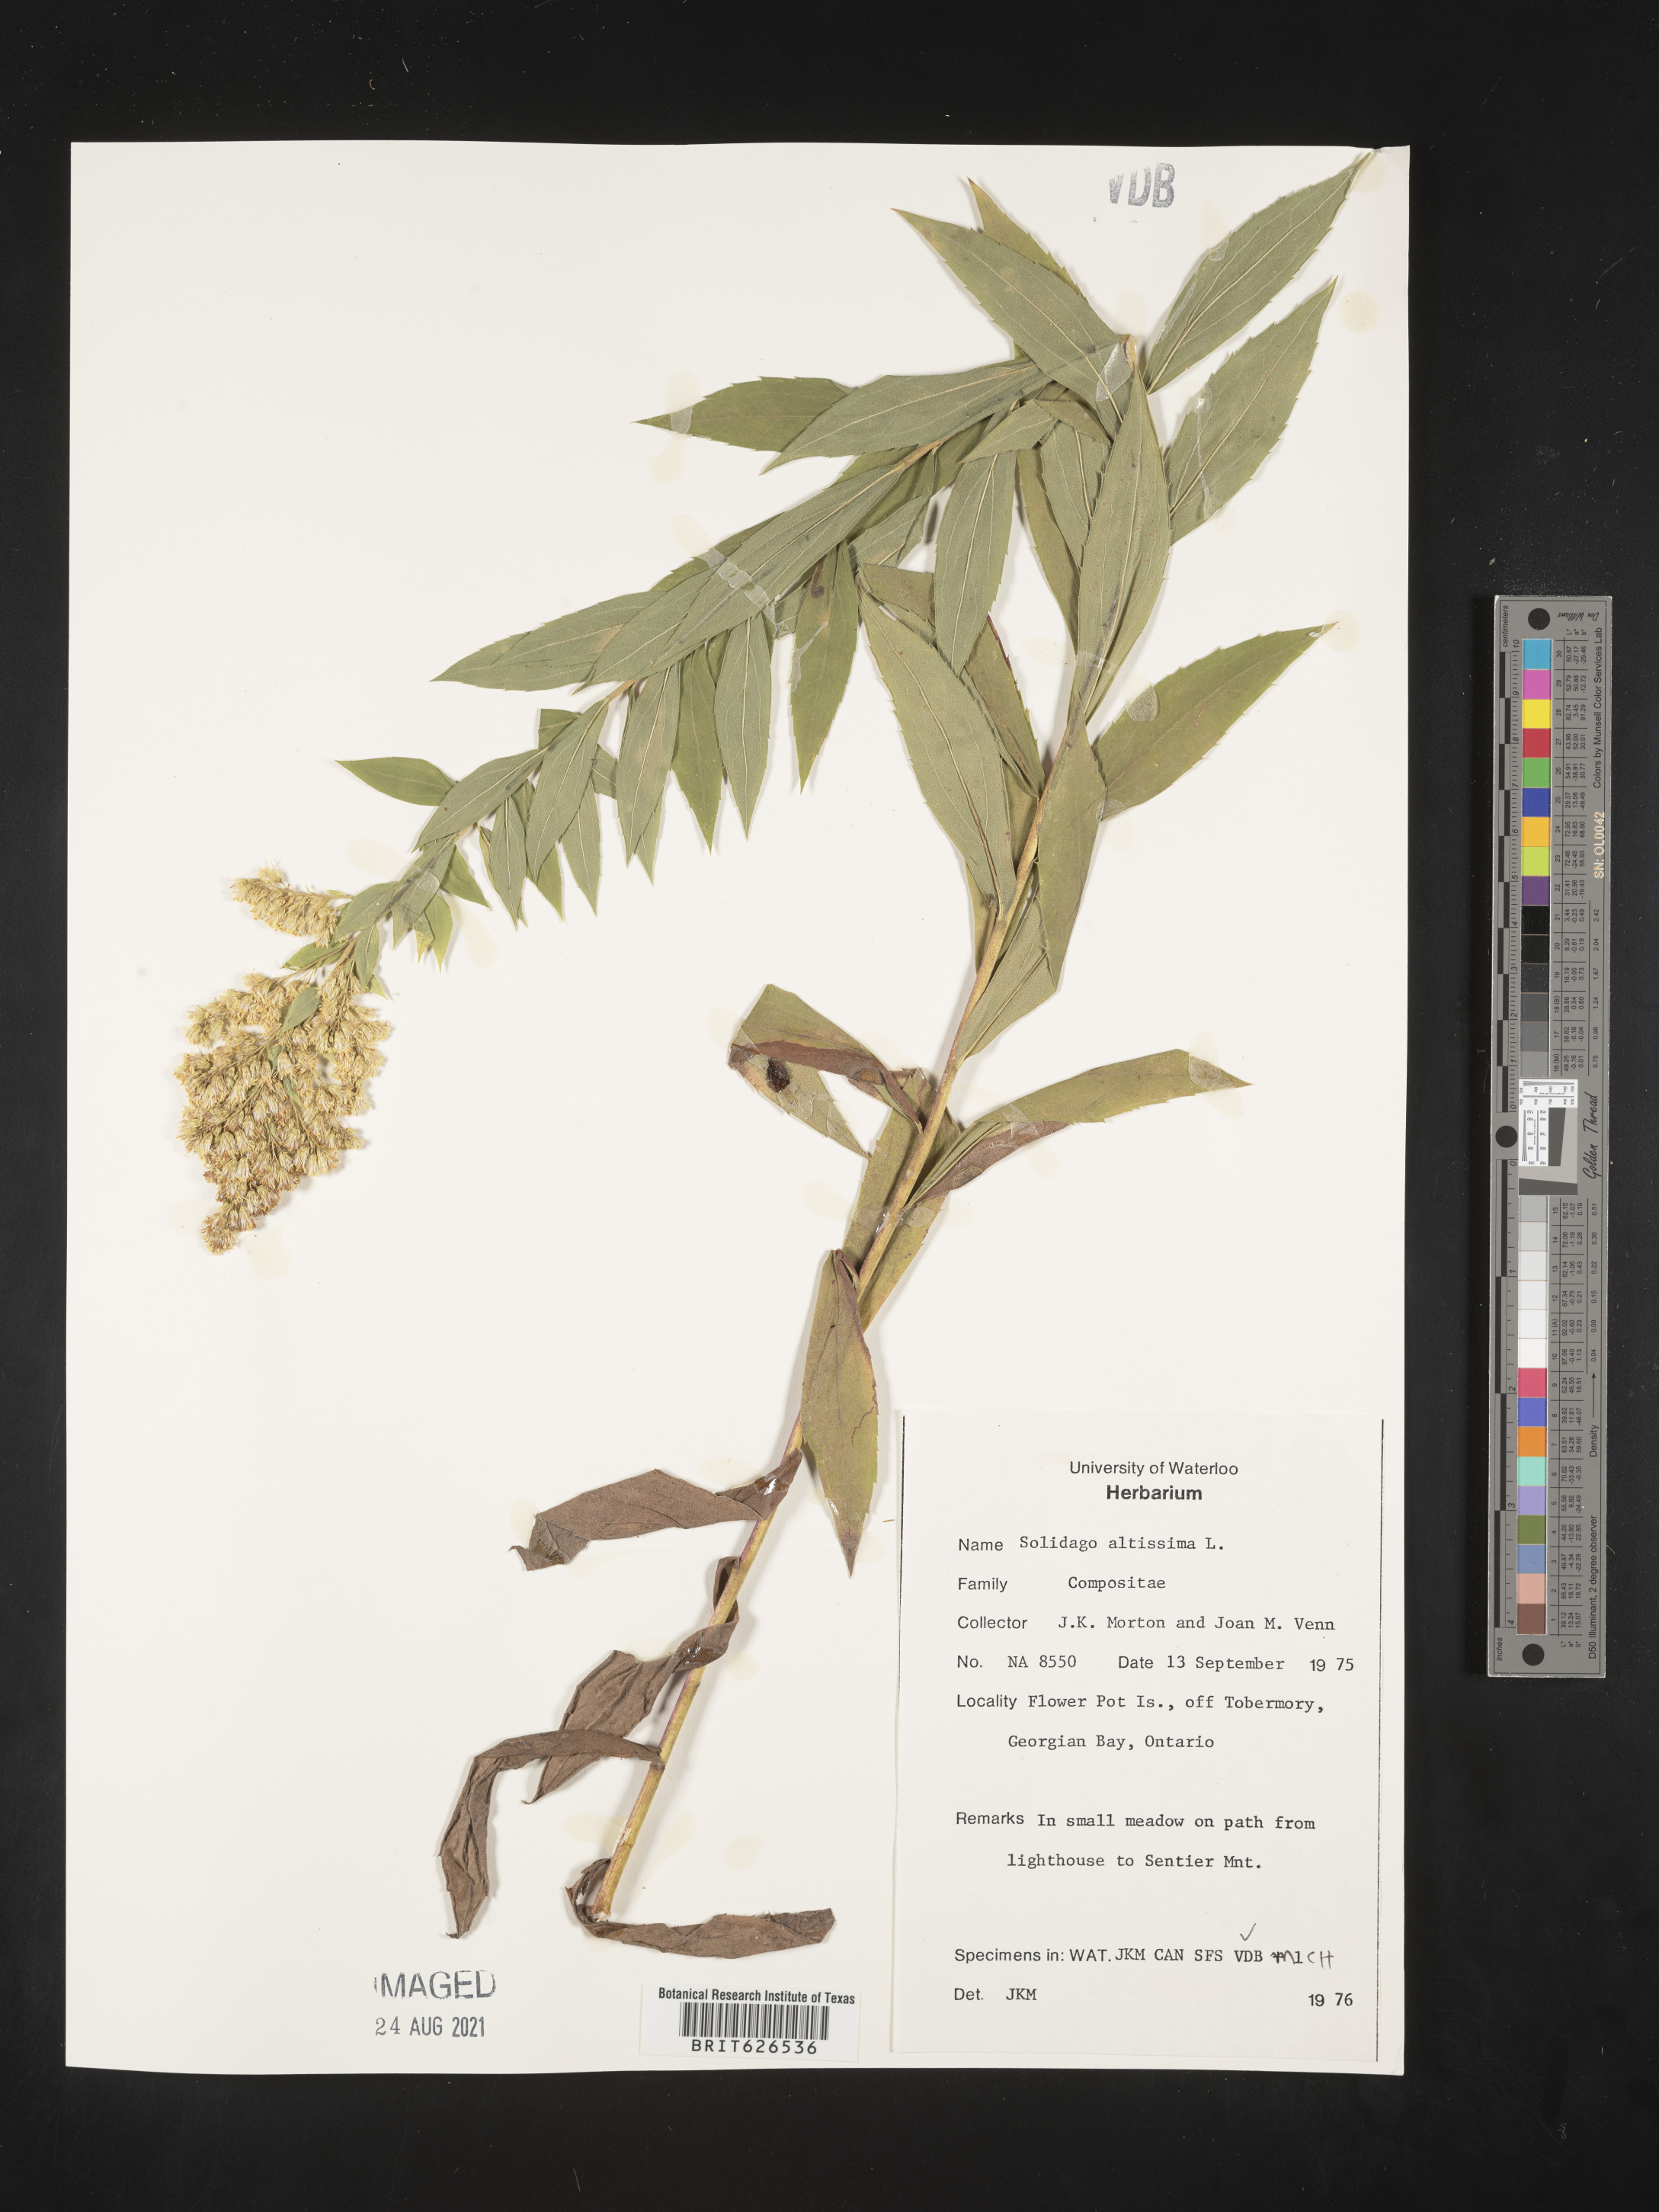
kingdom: Plantae
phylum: Tracheophyta
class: Magnoliopsida
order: Asterales
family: Asteraceae
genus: Solidago
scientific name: Solidago altissima
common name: Late goldenrod
